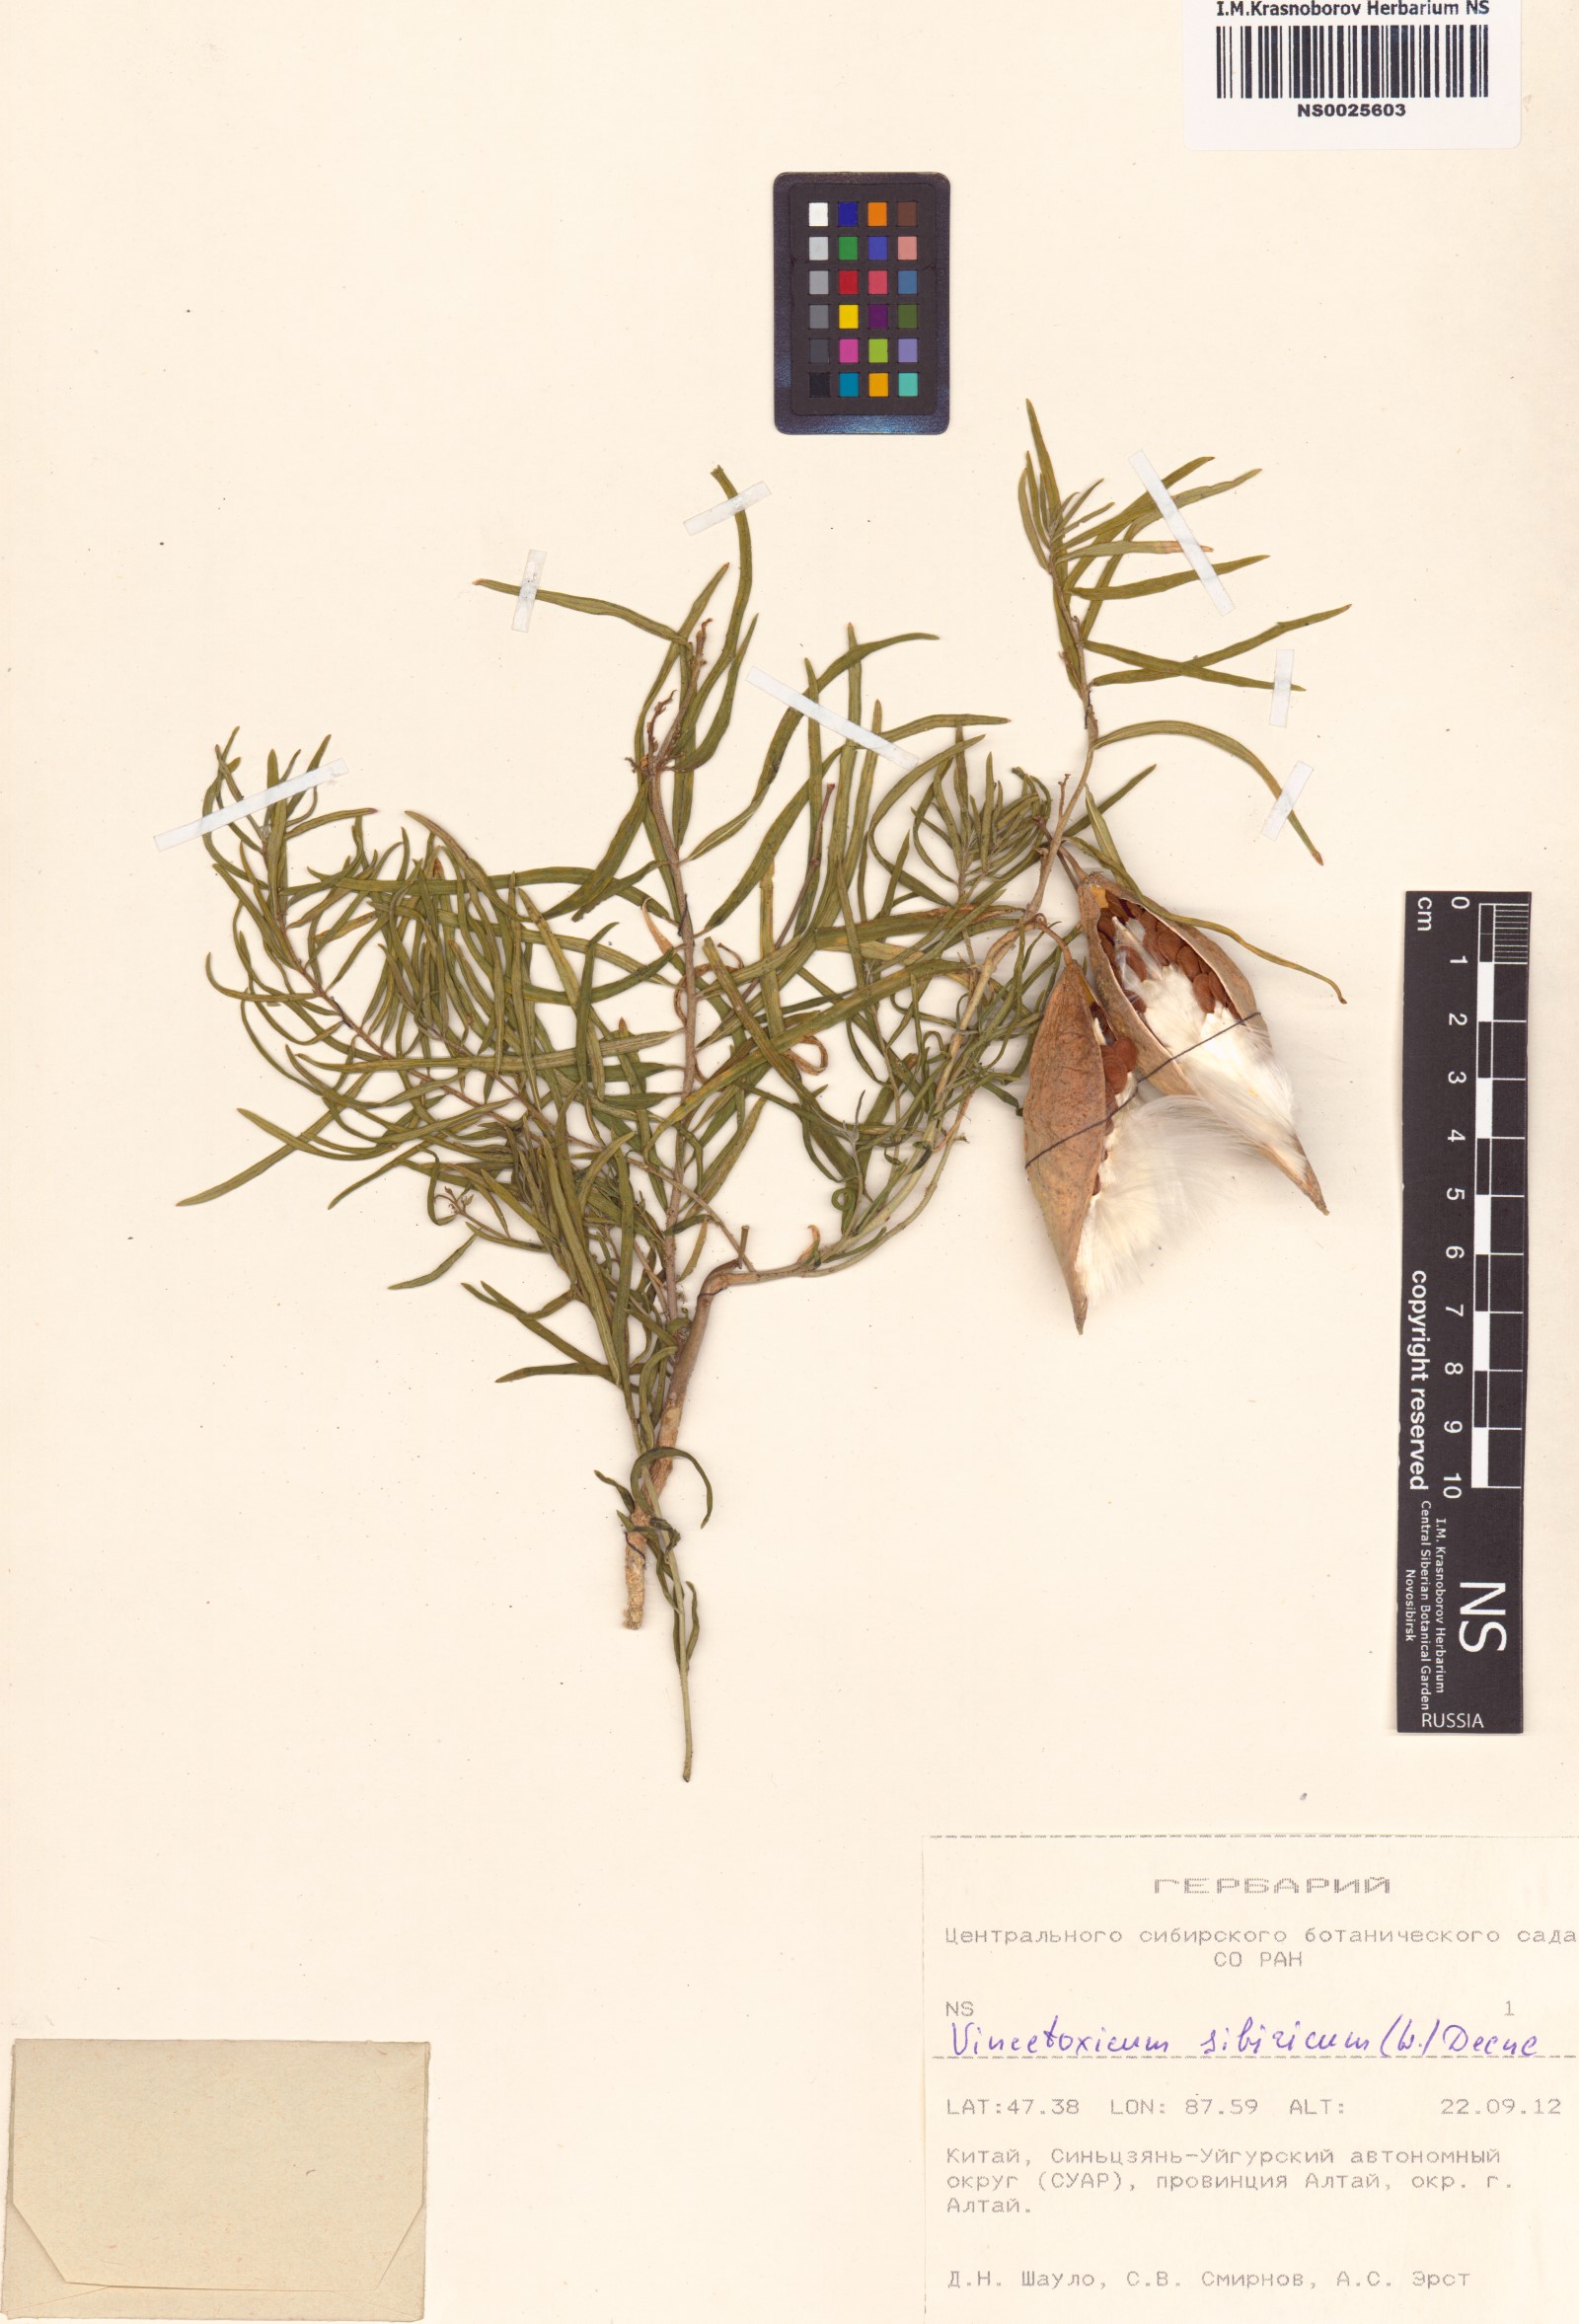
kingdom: Plantae
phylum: Tracheophyta
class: Magnoliopsida
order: Gentianales
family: Apocynaceae
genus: Cynanchum
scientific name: Cynanchum thesioides
